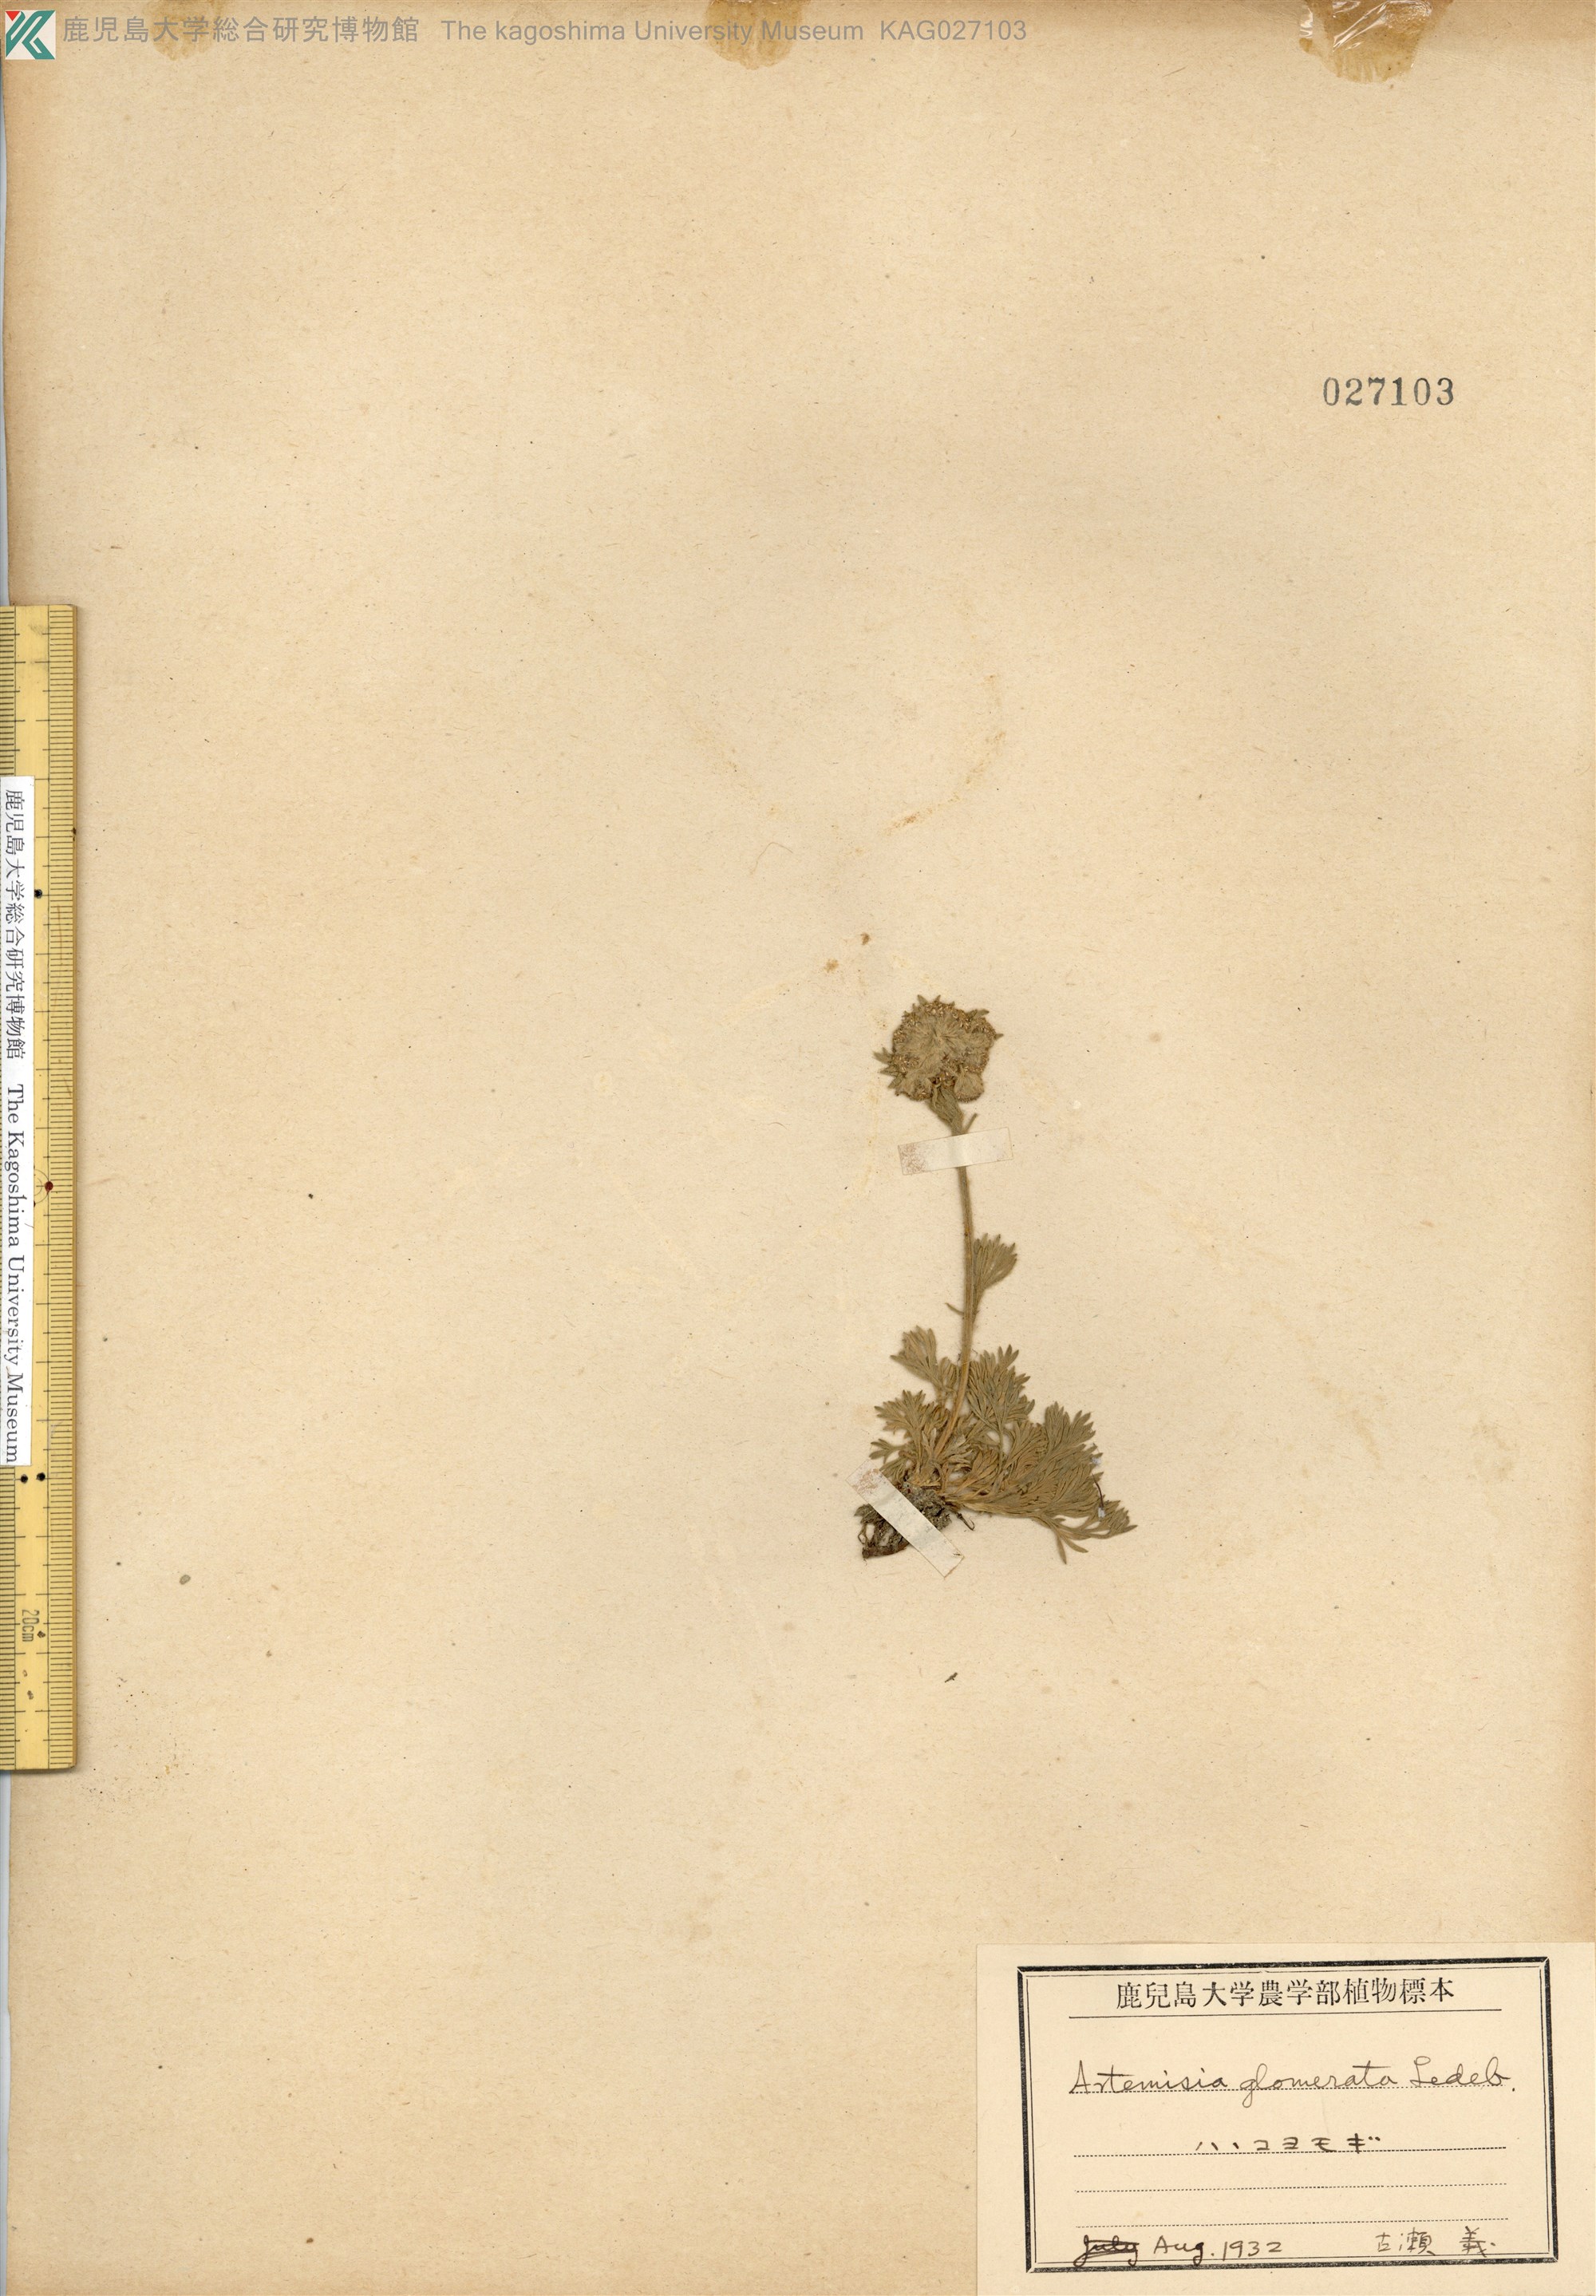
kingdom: Plantae
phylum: Tracheophyta
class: Magnoliopsida
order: Asterales
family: Asteraceae
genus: Artemisia
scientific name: Artemisia glomerata
